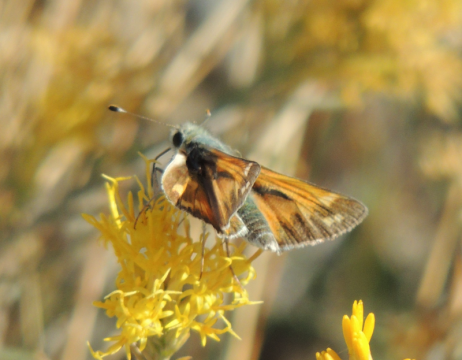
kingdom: Animalia
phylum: Arthropoda
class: Insecta
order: Lepidoptera
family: Hesperiidae
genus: Hesperia
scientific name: Hesperia juba
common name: Juba Skipper
